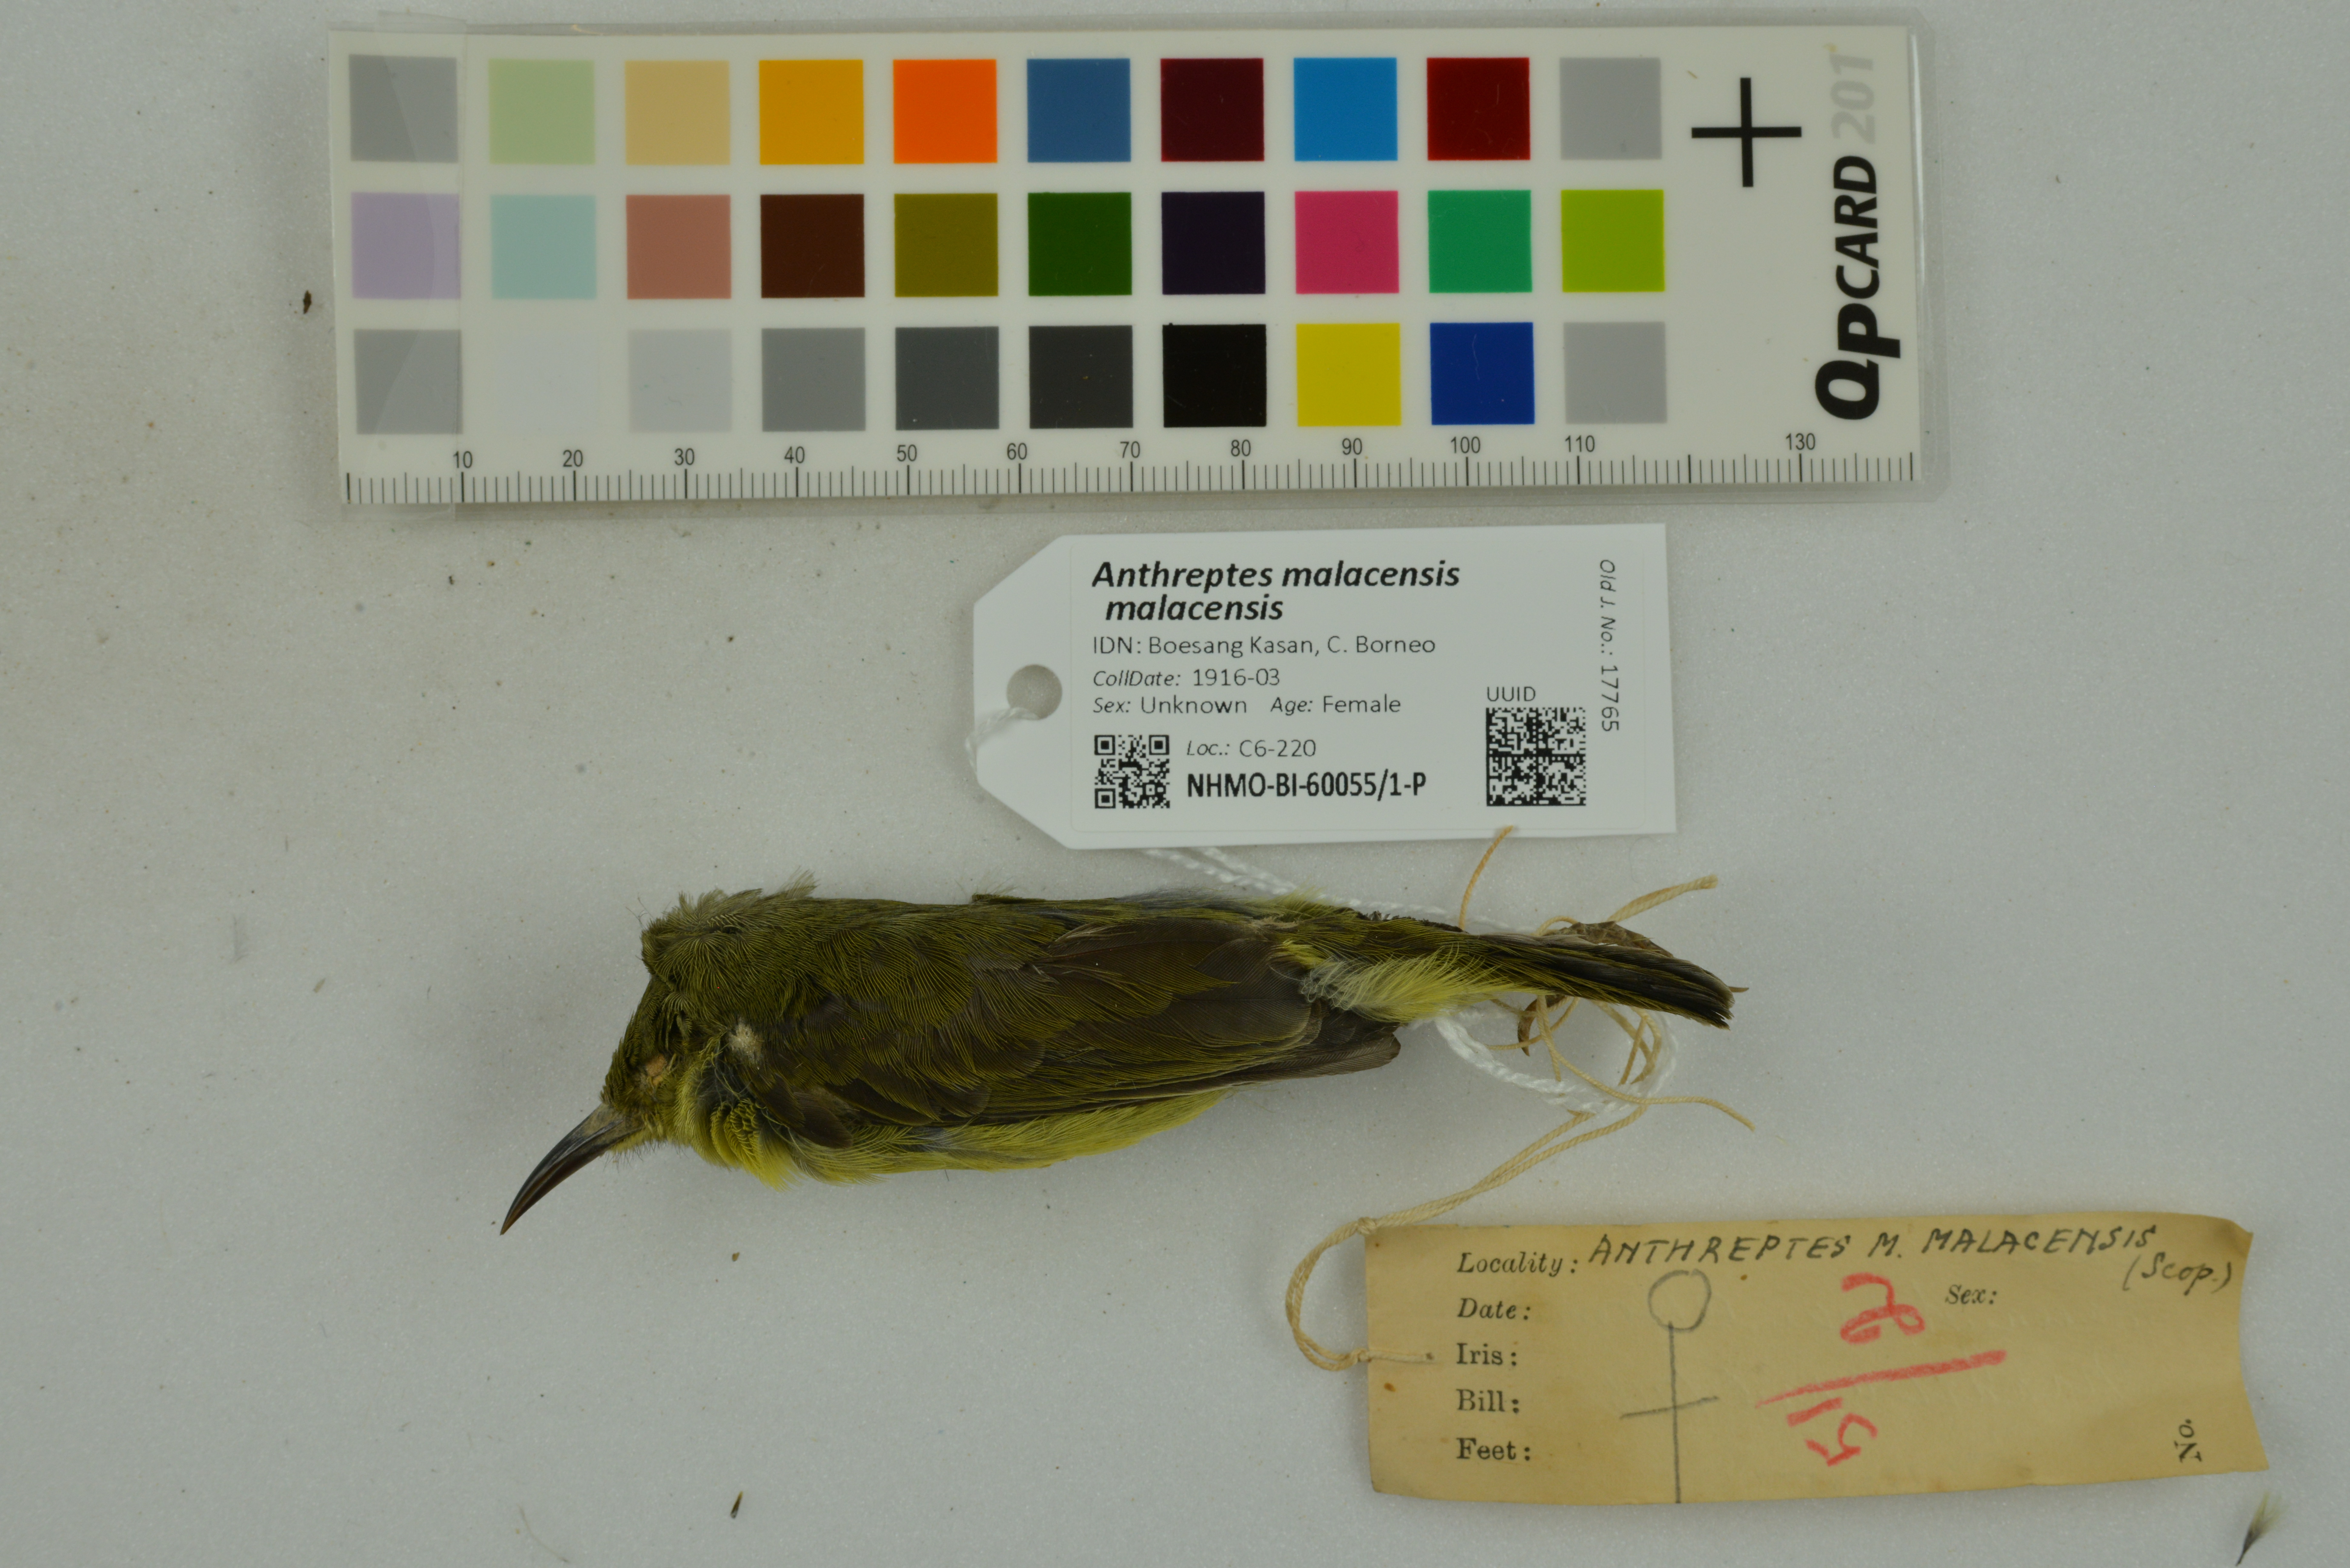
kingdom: Animalia
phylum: Chordata
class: Aves
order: Passeriformes
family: Nectariniidae
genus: Anthreptes
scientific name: Anthreptes malacensis
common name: Brown-throated sunbird
